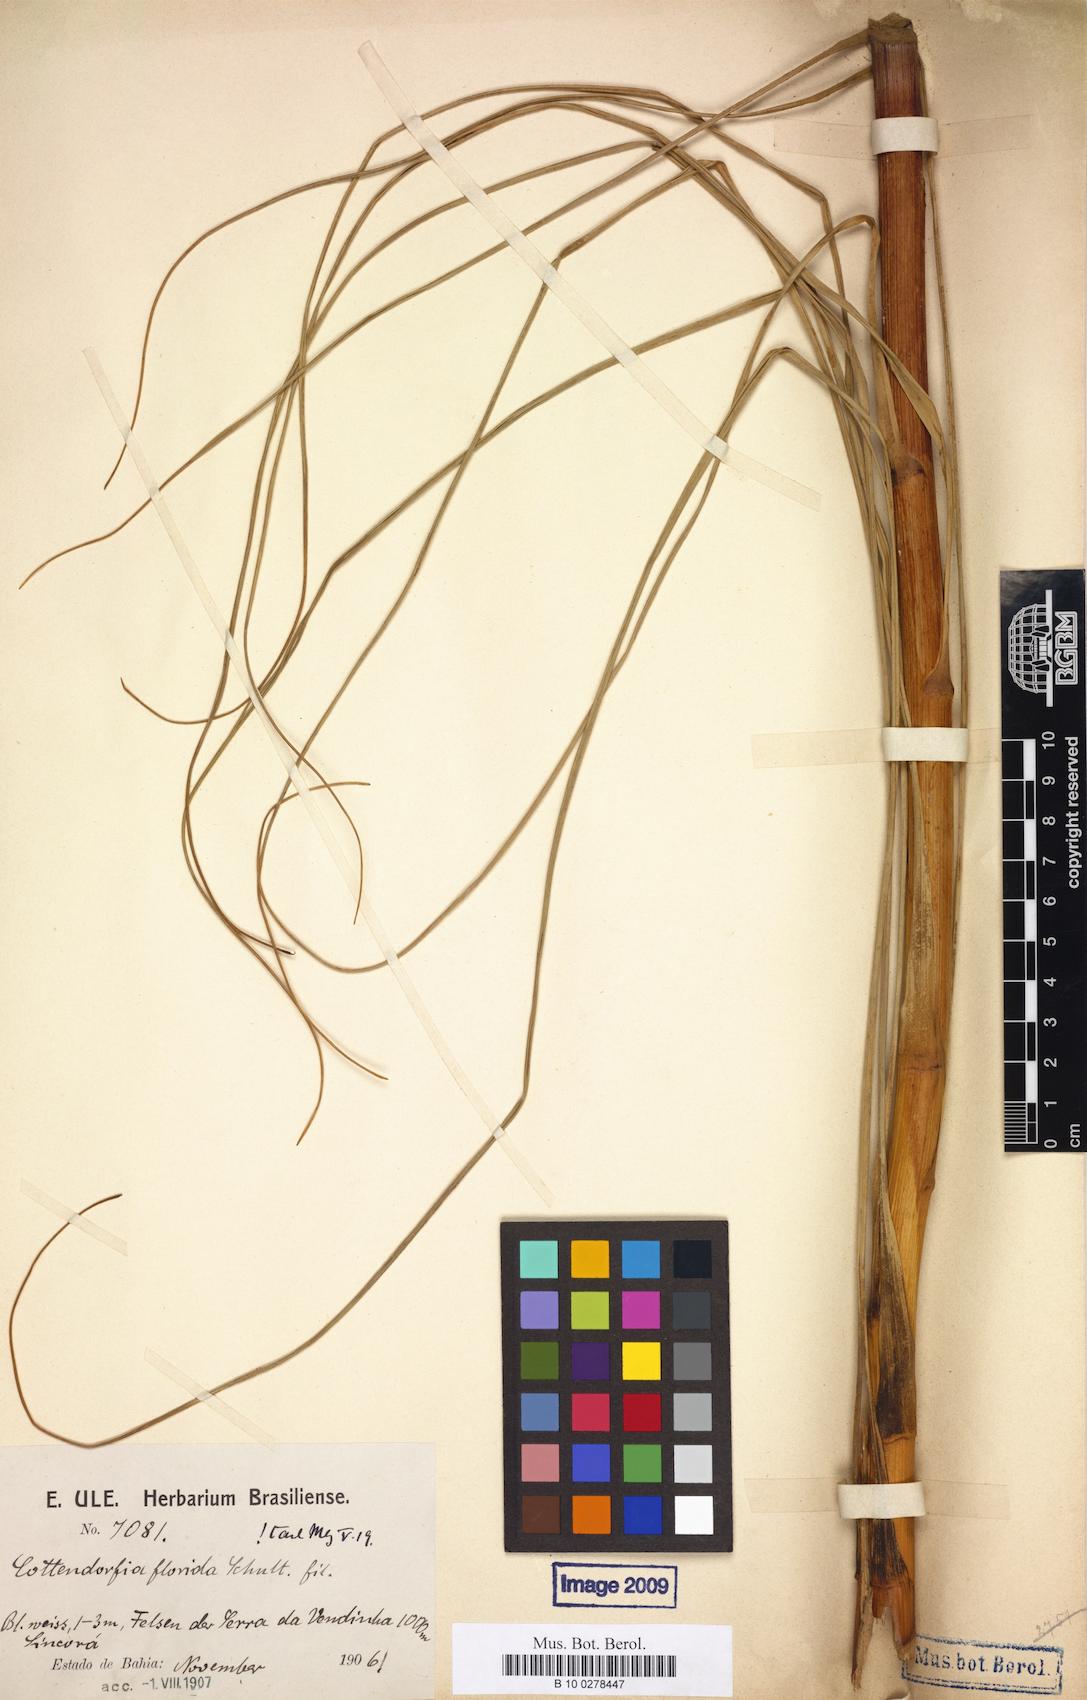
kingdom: Plantae
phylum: Tracheophyta
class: Liliopsida
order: Poales
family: Bromeliaceae
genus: Cottendorfia
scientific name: Cottendorfia florida
